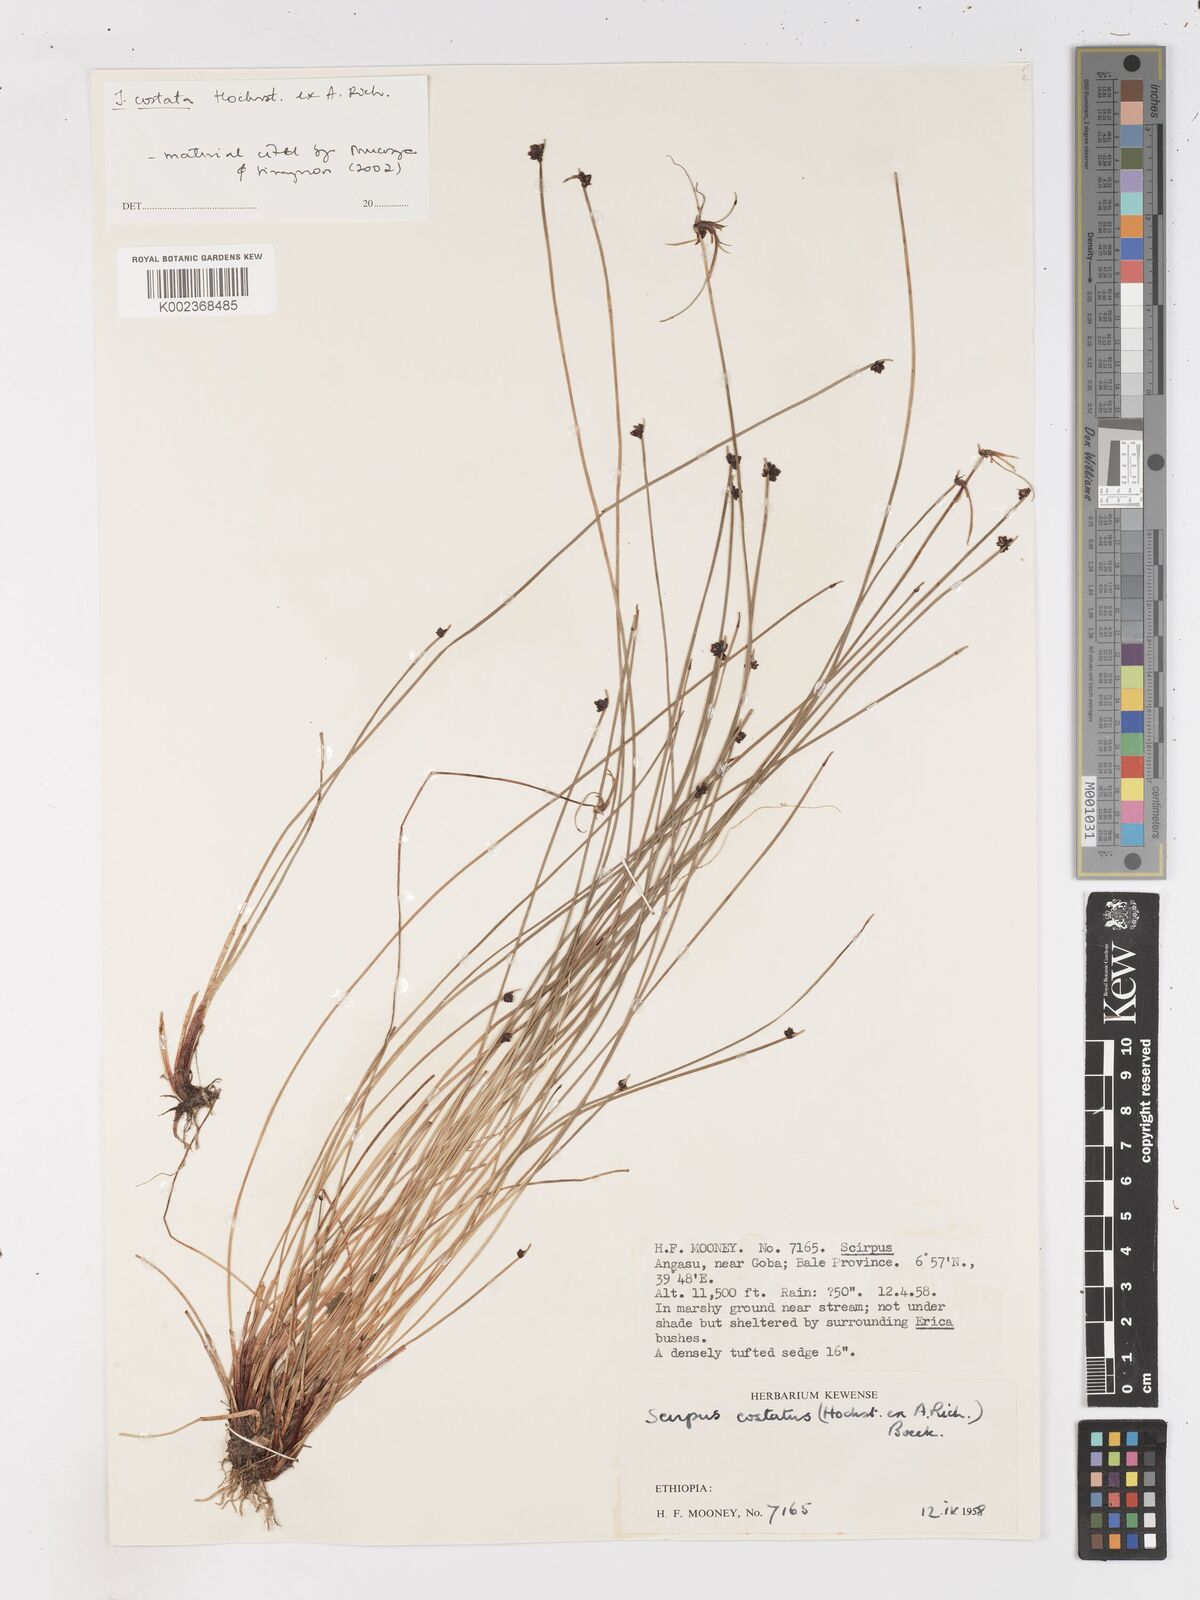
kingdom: Plantae
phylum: Tracheophyta
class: Liliopsida
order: Poales
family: Cyperaceae
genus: Isolepis
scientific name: Isolepis costata
